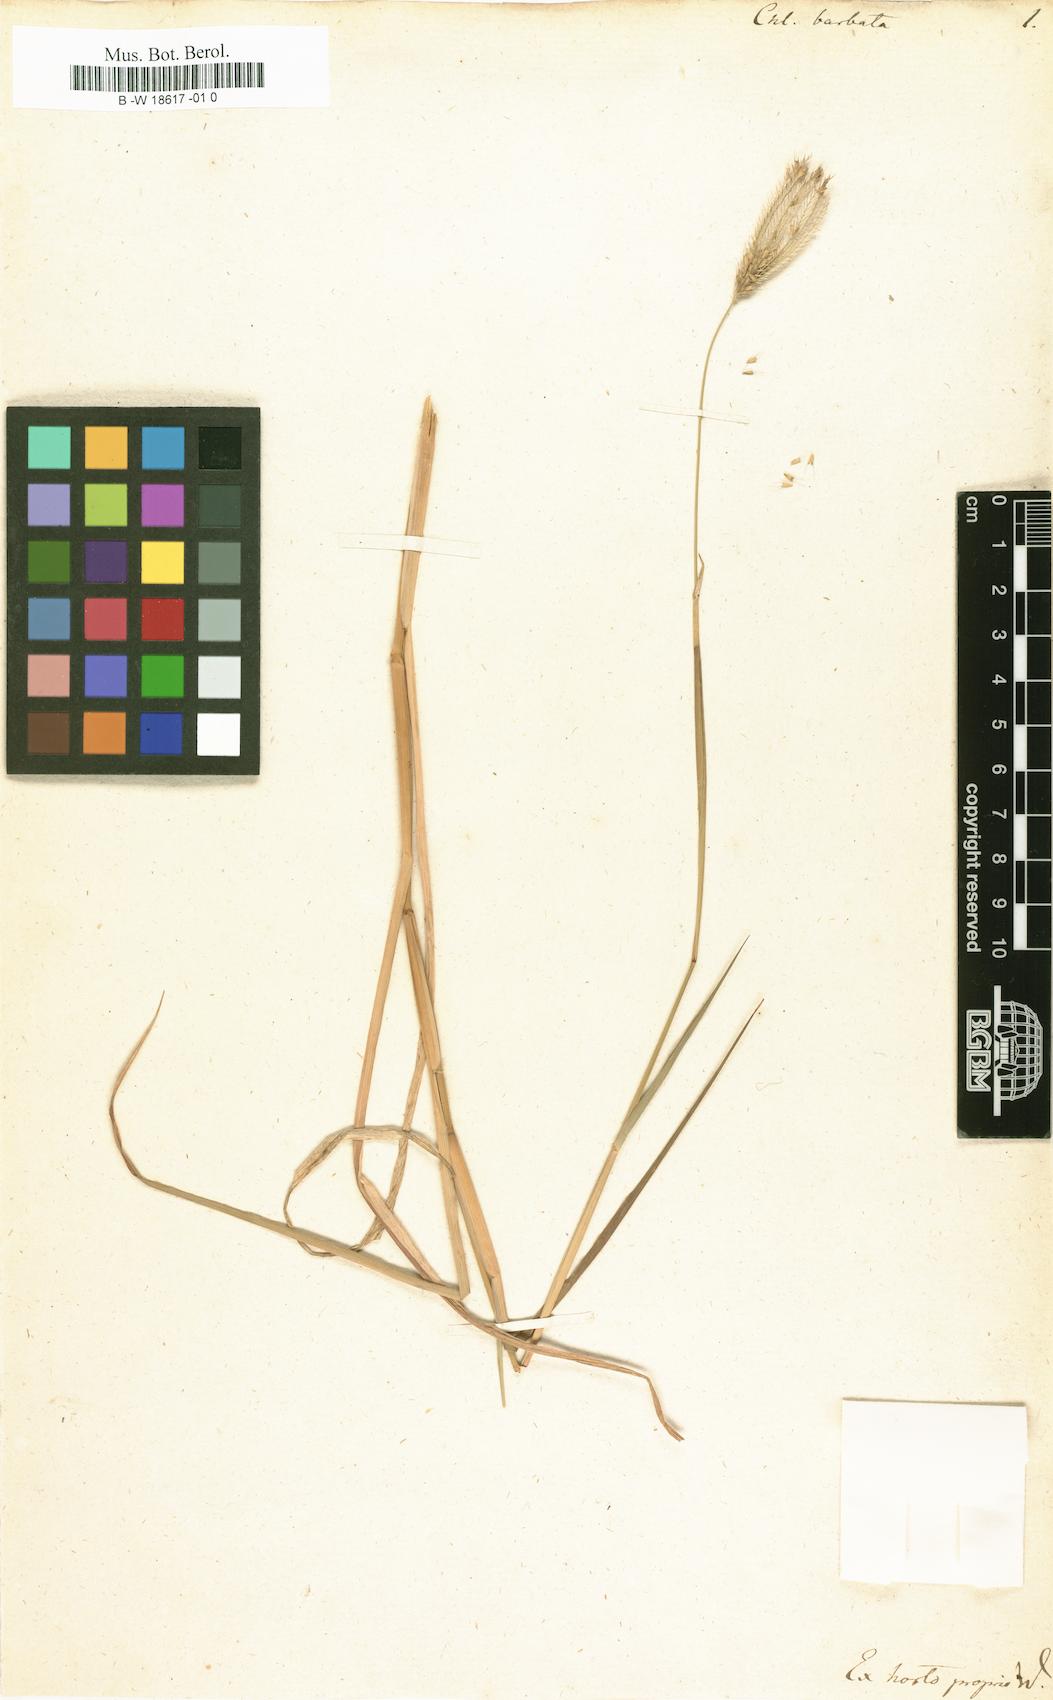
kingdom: Plantae
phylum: Tracheophyta
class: Liliopsida
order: Poales
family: Poaceae
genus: Chloris
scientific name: Chloris barbata
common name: Swollen fingergrass
